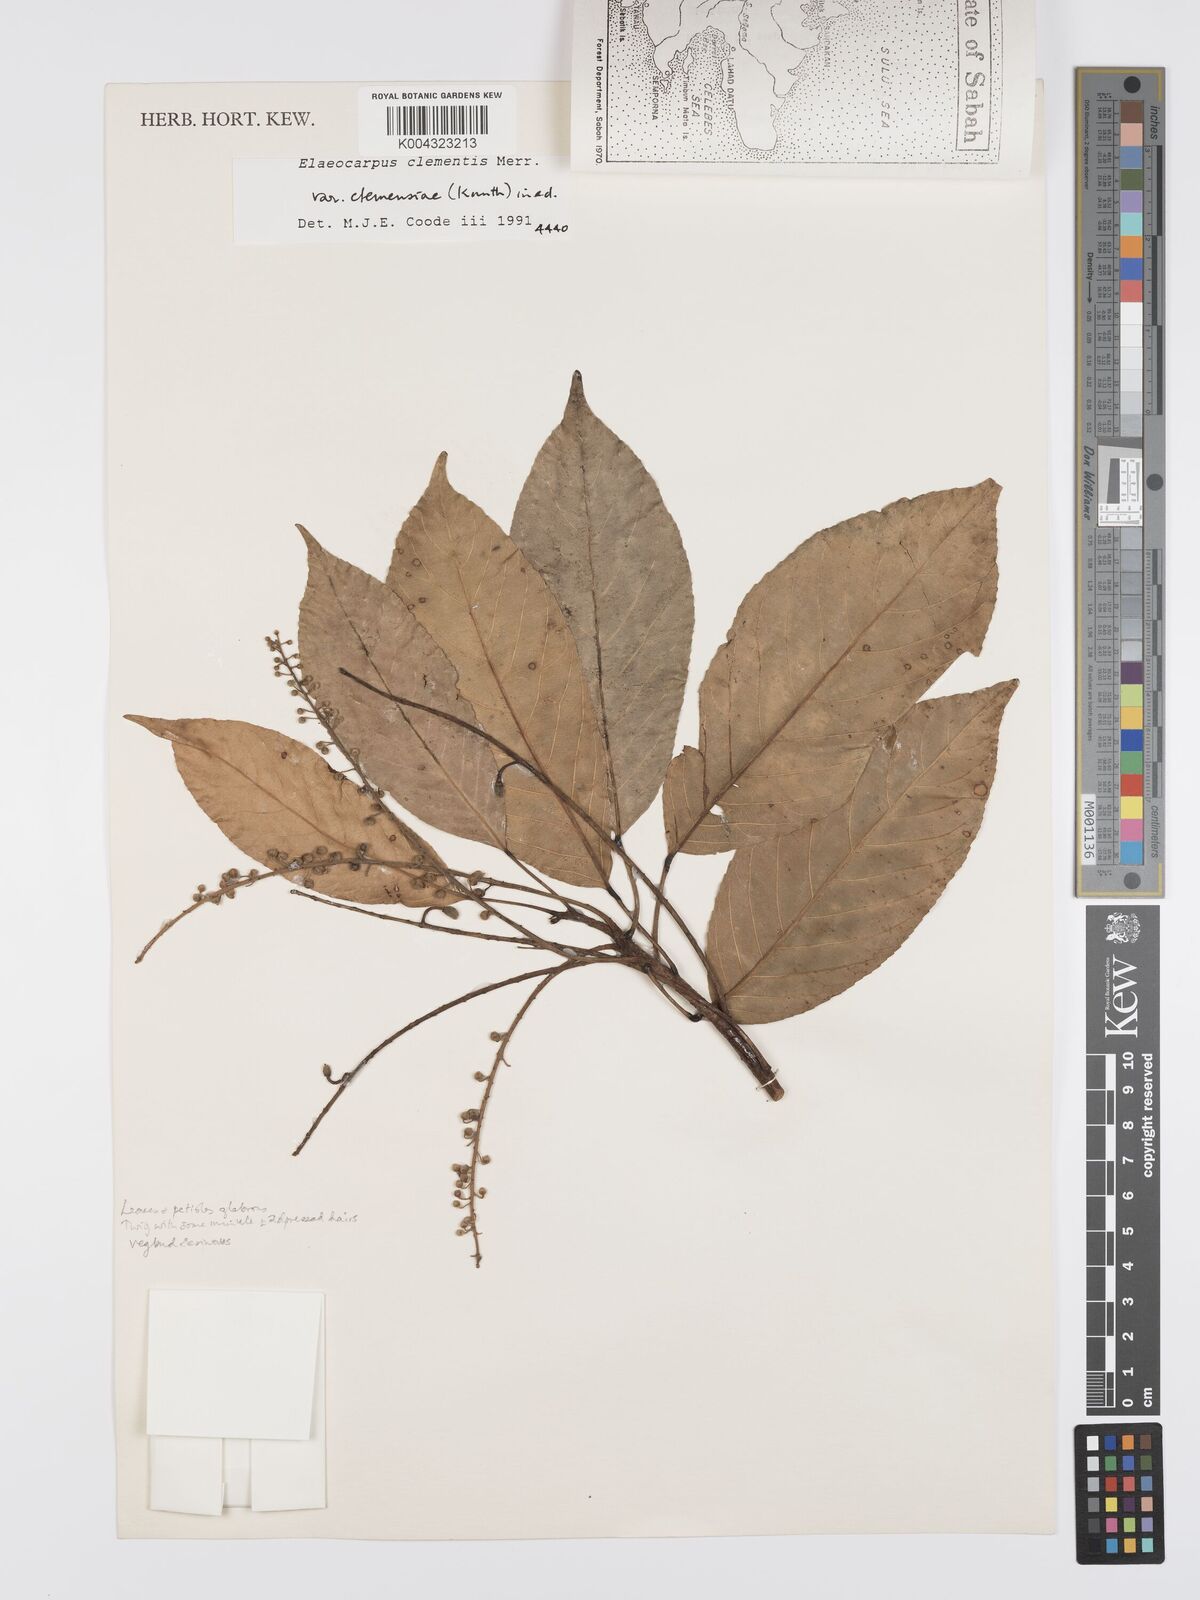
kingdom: Plantae
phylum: Tracheophyta
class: Magnoliopsida
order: Oxalidales
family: Elaeocarpaceae
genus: Elaeocarpus
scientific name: Elaeocarpus clementis
